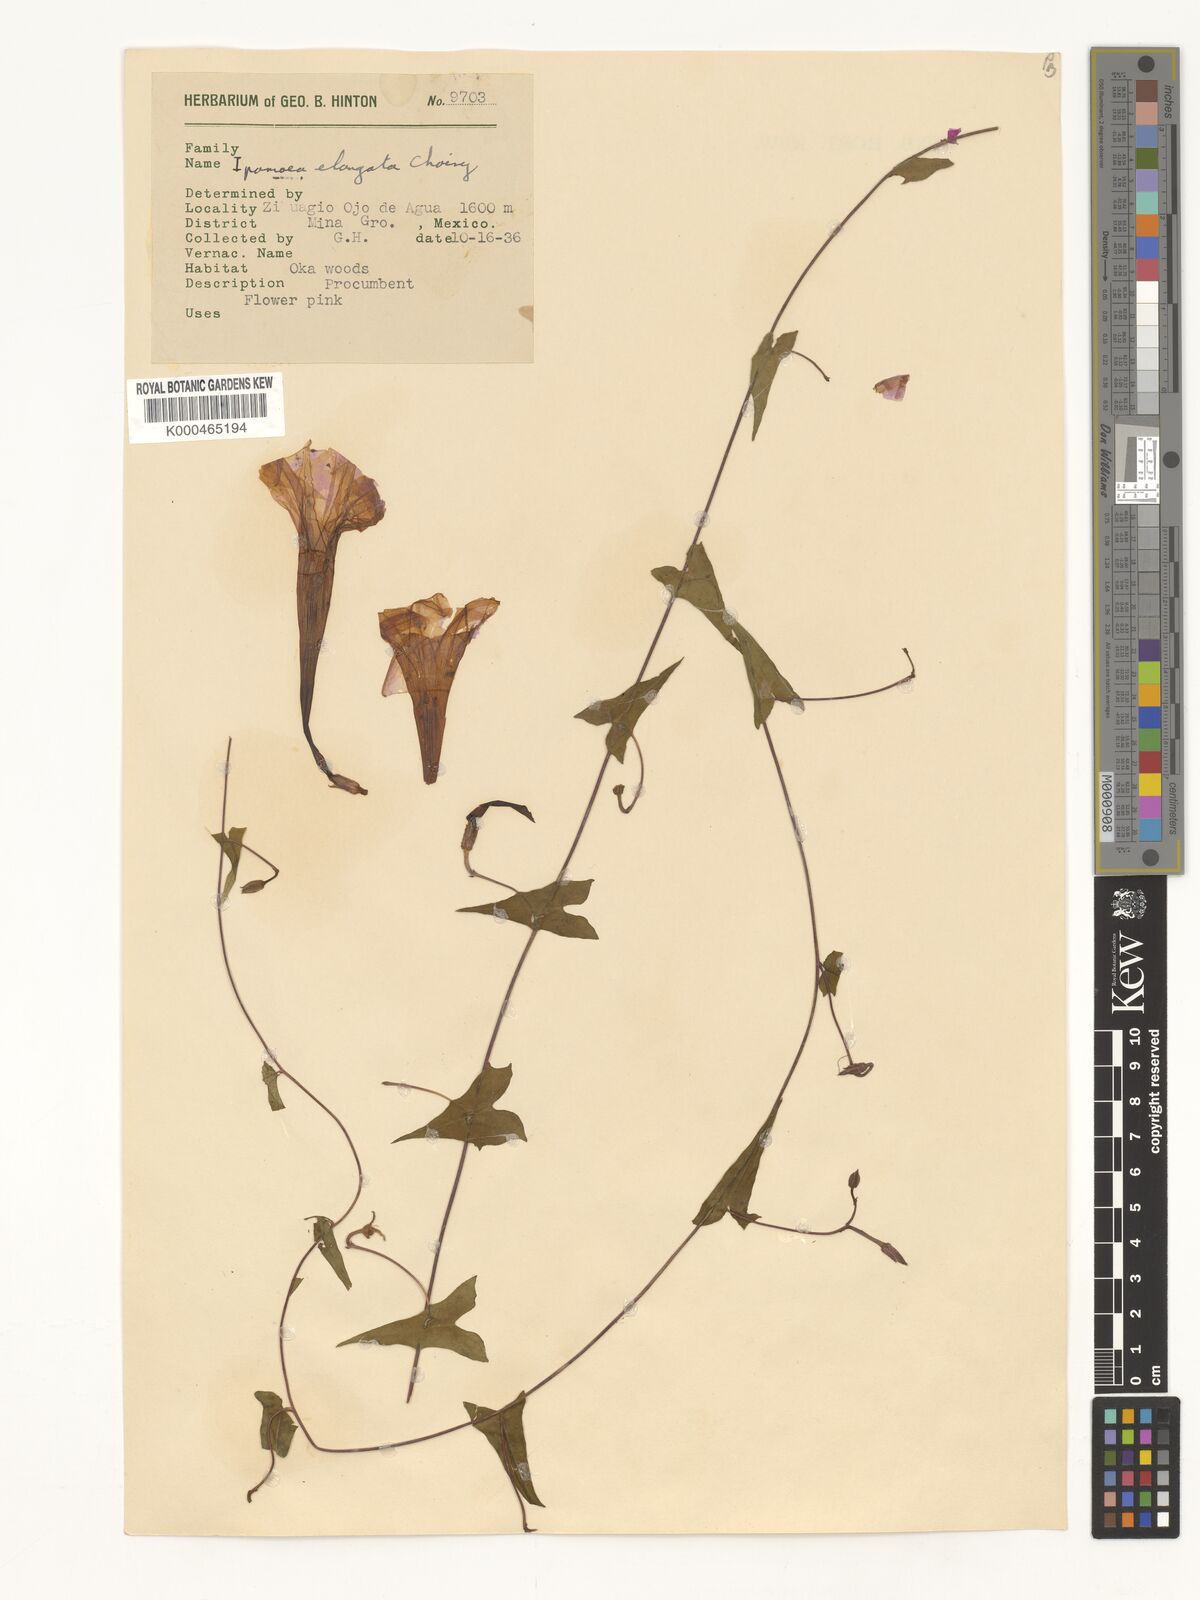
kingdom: Plantae
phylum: Tracheophyta
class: Magnoliopsida
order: Solanales
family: Convolvulaceae
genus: Ipomoea
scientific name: Ipomoea elongata
